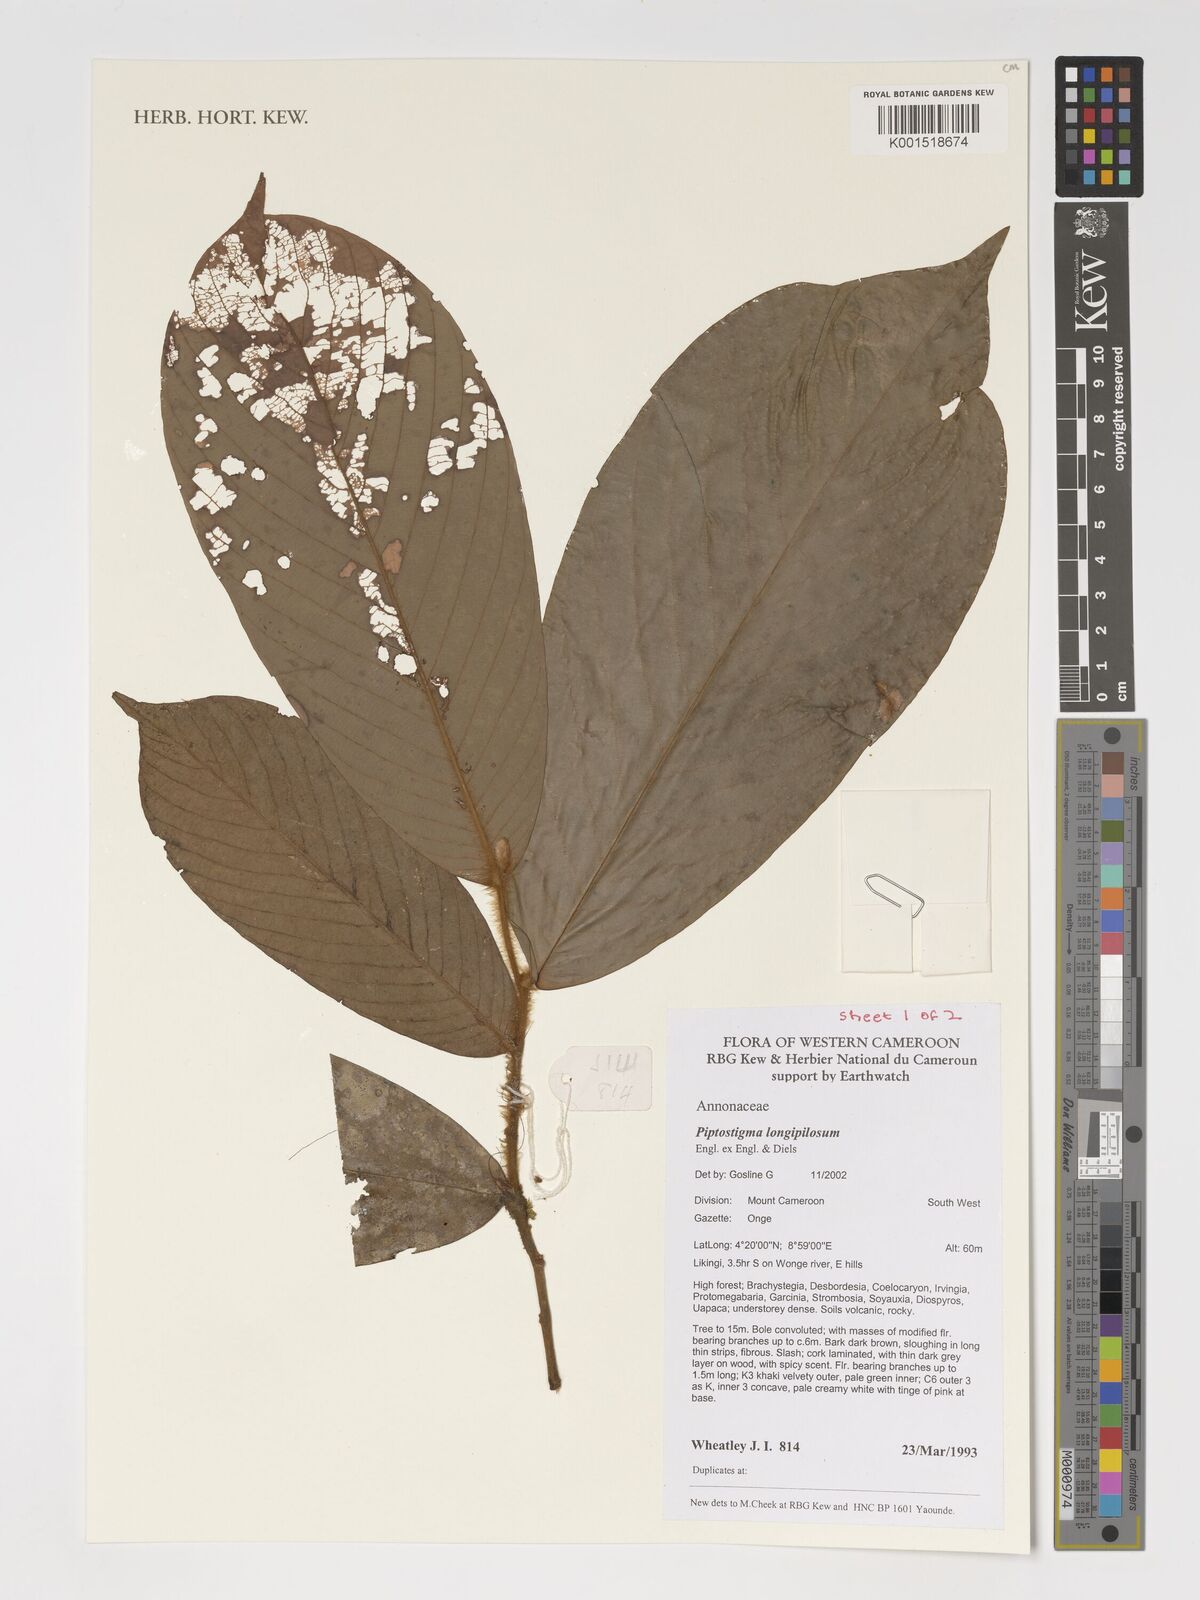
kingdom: Plantae
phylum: Tracheophyta
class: Magnoliopsida
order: Magnoliales
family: Annonaceae
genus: Piptostigma
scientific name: Piptostigma longepilosum
